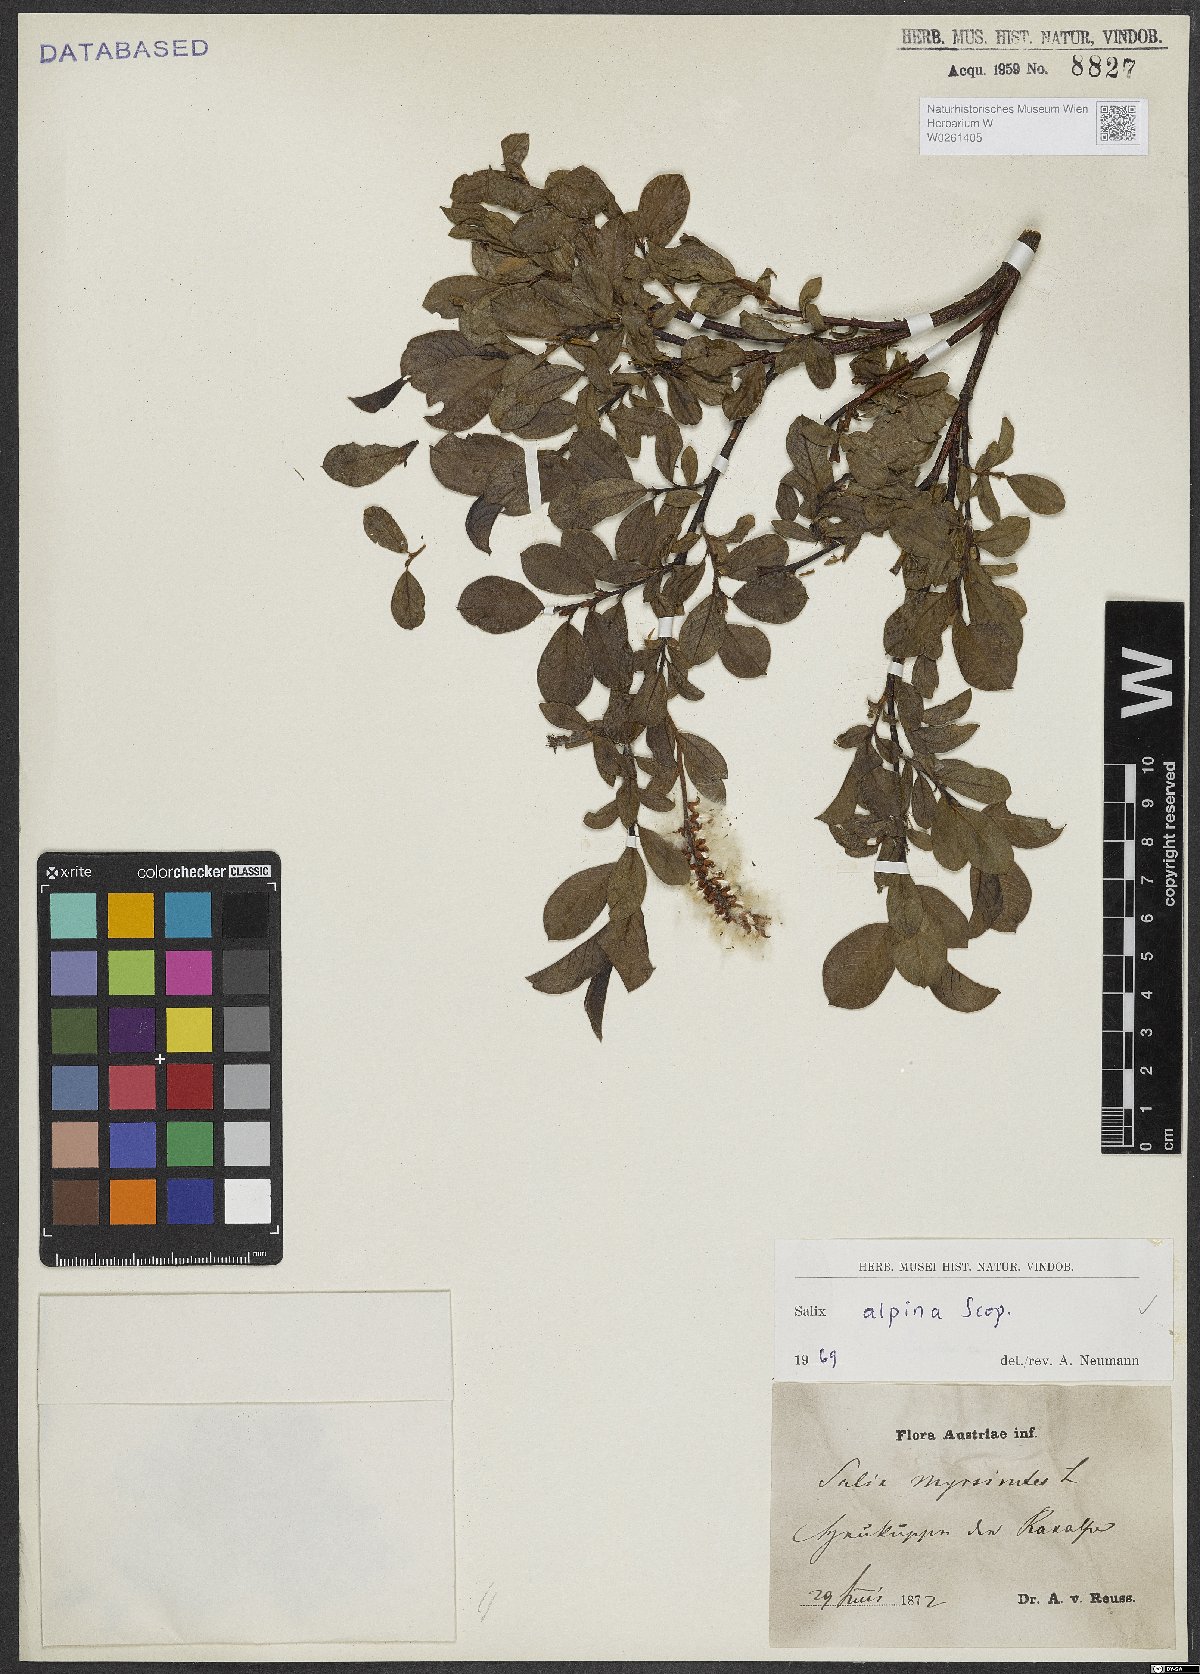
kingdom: Plantae
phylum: Tracheophyta
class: Magnoliopsida
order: Malpighiales
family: Salicaceae
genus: Salix
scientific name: Salix alpina
